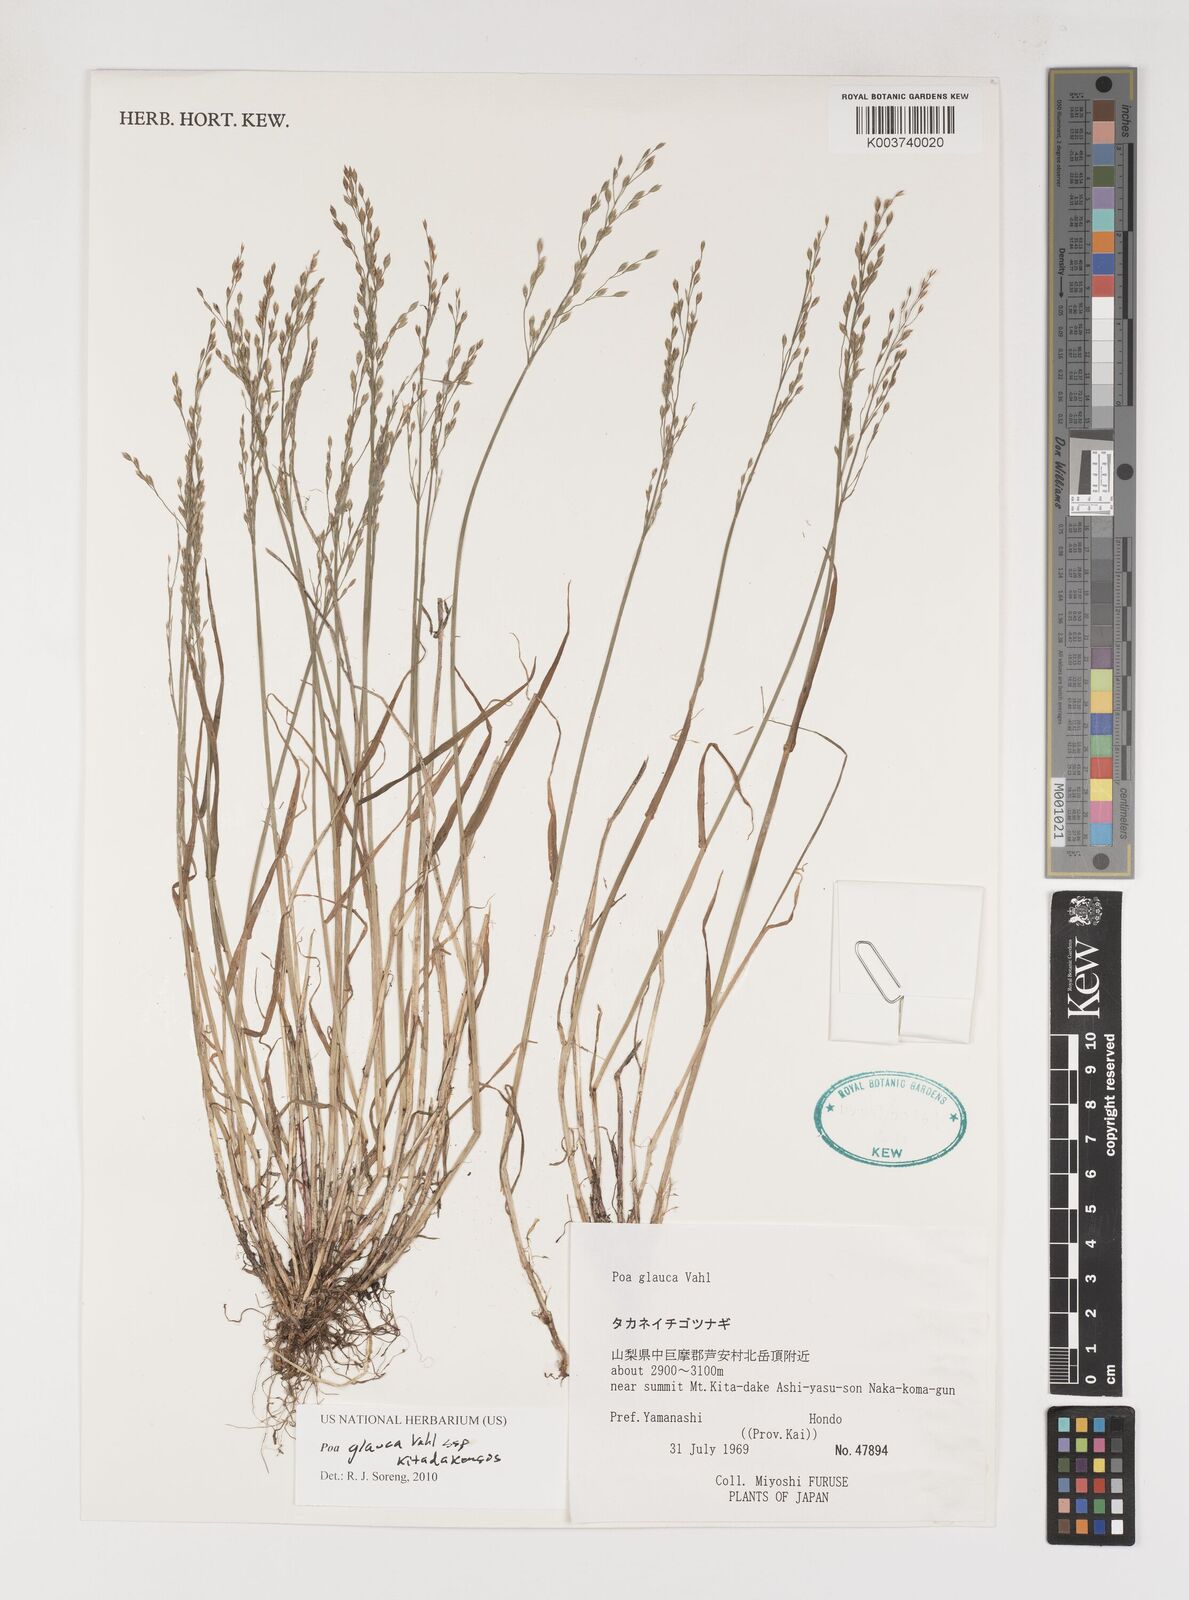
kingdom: Plantae
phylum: Tracheophyta
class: Liliopsida
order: Poales
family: Poaceae
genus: Poa
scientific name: Poa glauca
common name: Glaucous bluegrass
